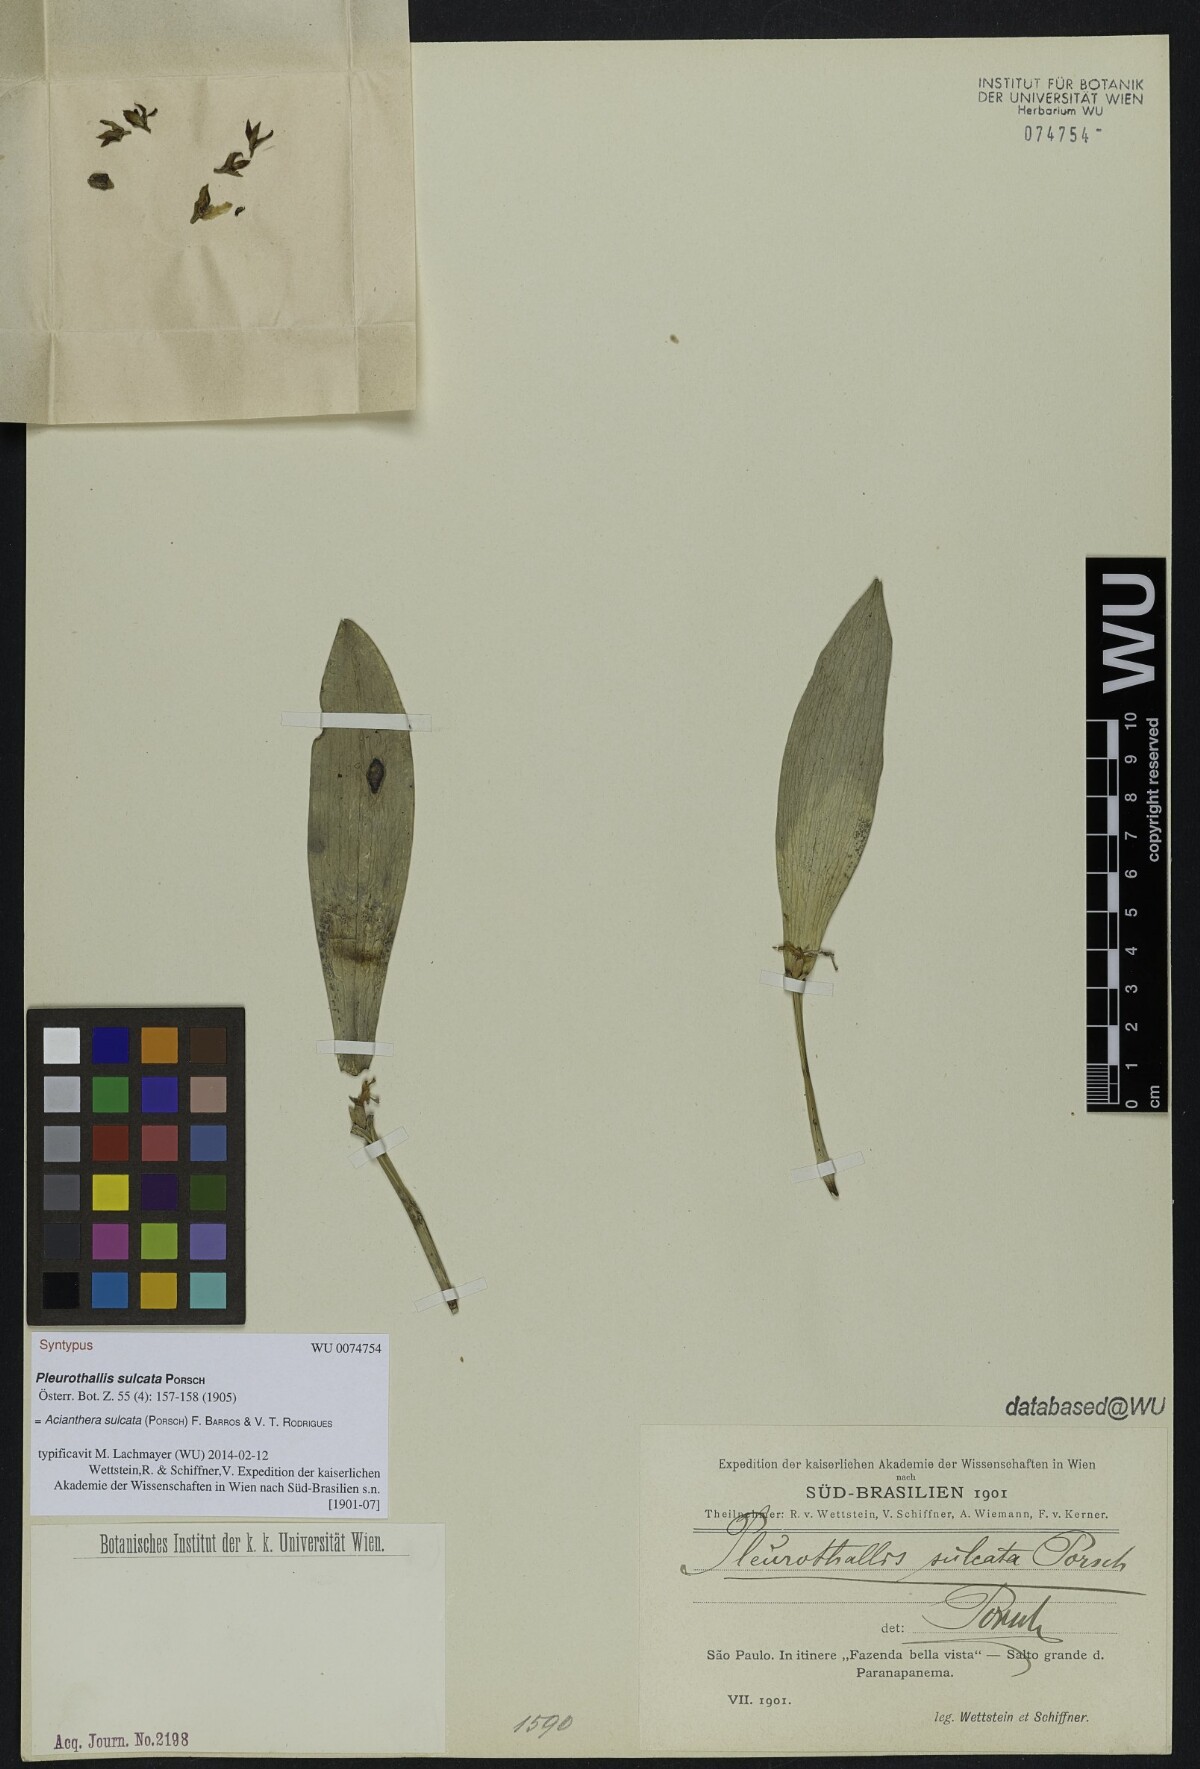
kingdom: Plantae
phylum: Tracheophyta
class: Liliopsida
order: Asparagales
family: Orchidaceae
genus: Acianthera
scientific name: Acianthera sulcata
